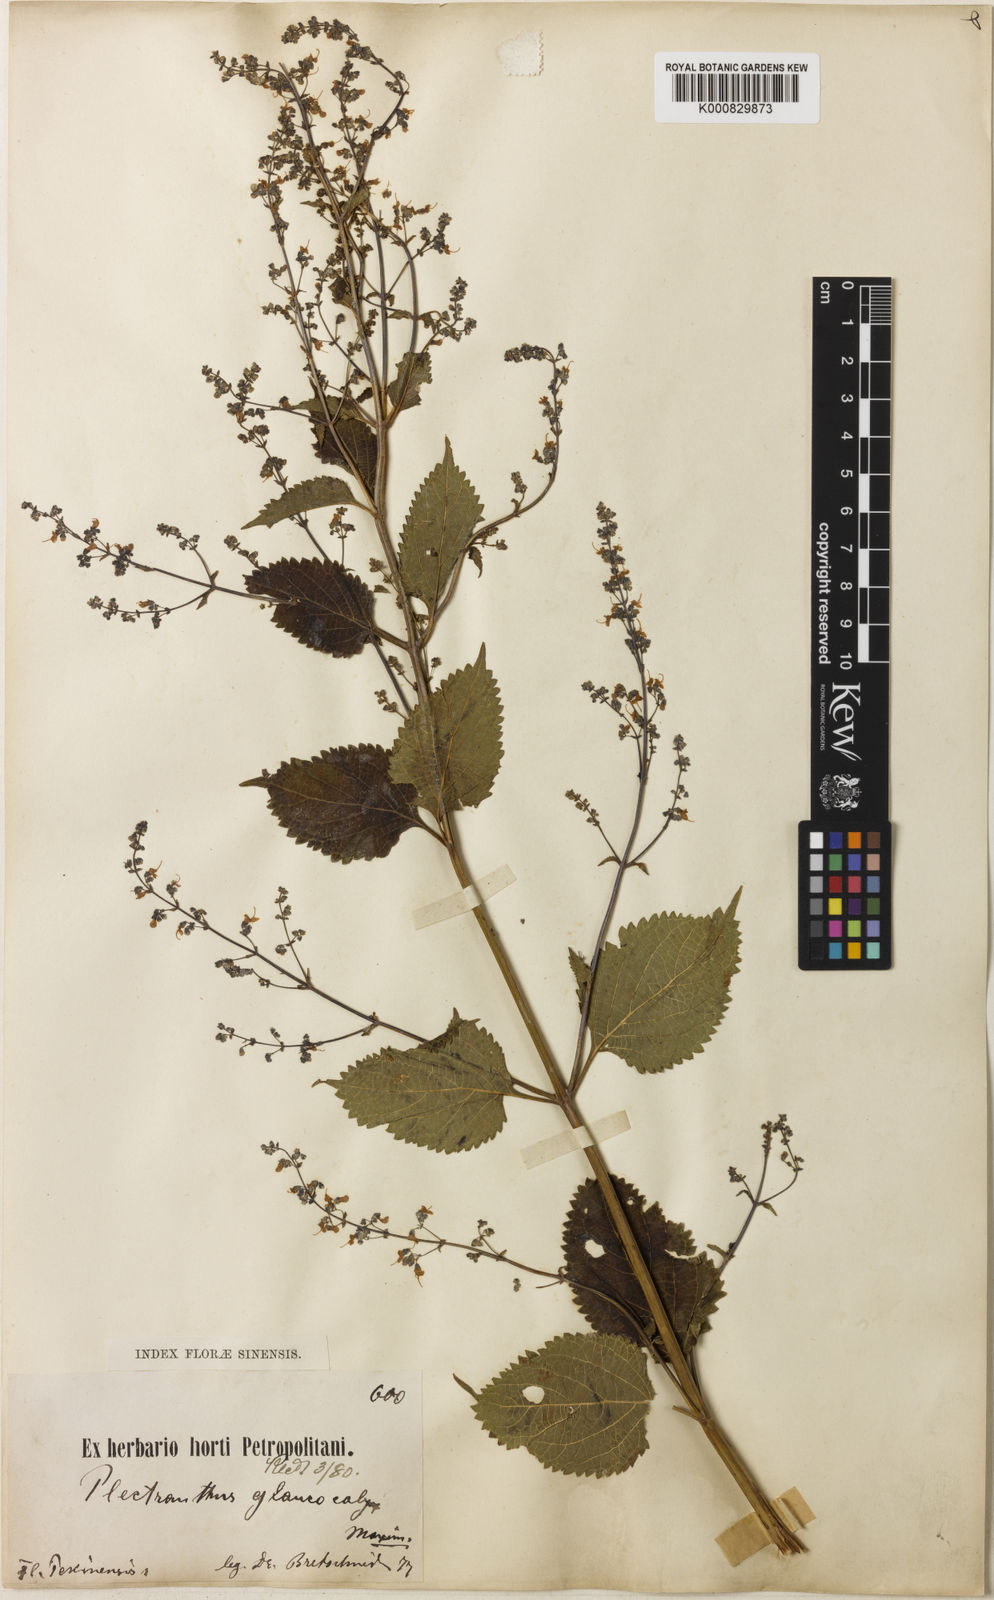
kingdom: Plantae
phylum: Tracheophyta
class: Magnoliopsida
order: Lamiales
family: Lamiaceae
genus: Isodon
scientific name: Isodon japonicus
